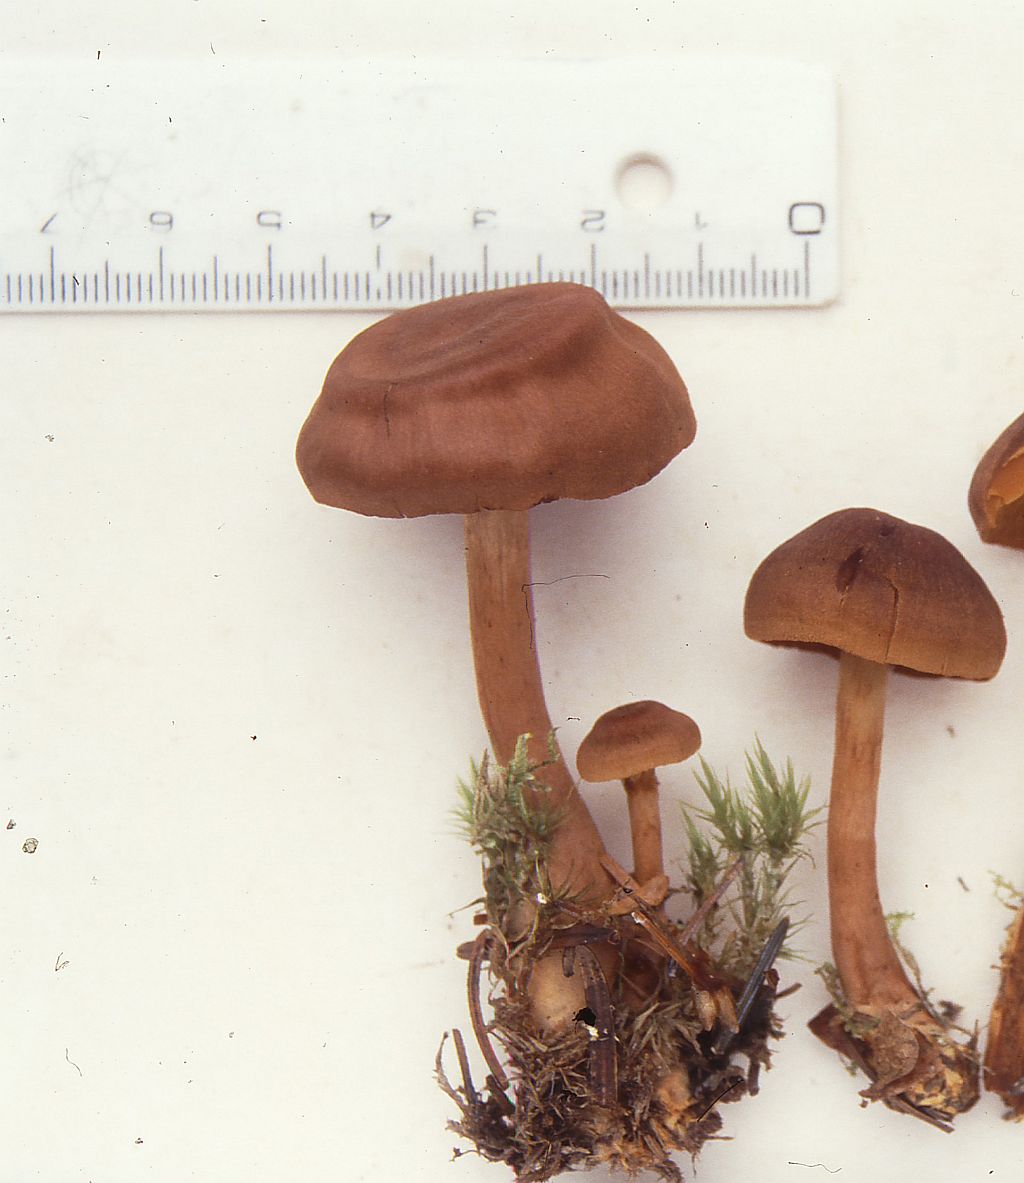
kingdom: Fungi
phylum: Basidiomycota
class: Agaricomycetes
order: Agaricales
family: Cortinariaceae
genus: Cortinarius
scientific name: Cortinarius pellstonianus
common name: zoneret slørhat
